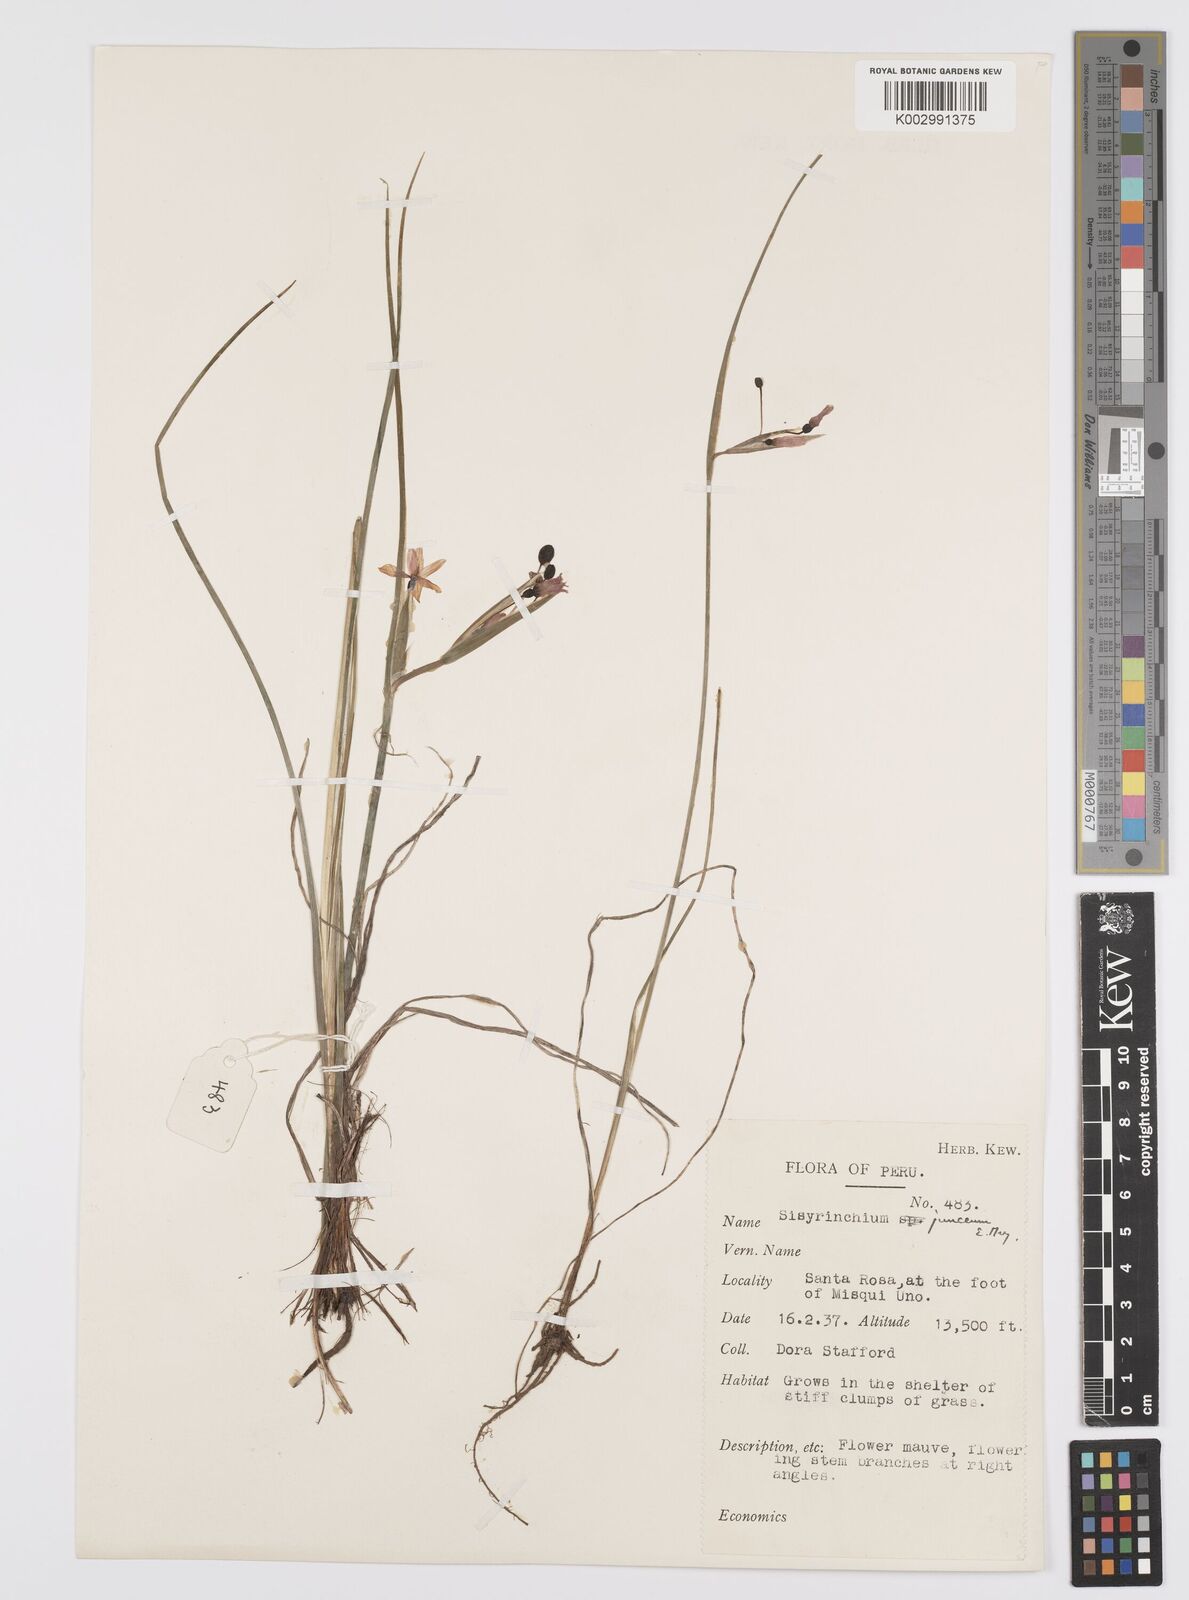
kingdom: Plantae
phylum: Tracheophyta
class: Liliopsida
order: Asparagales
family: Iridaceae
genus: Olsynium
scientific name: Olsynium
